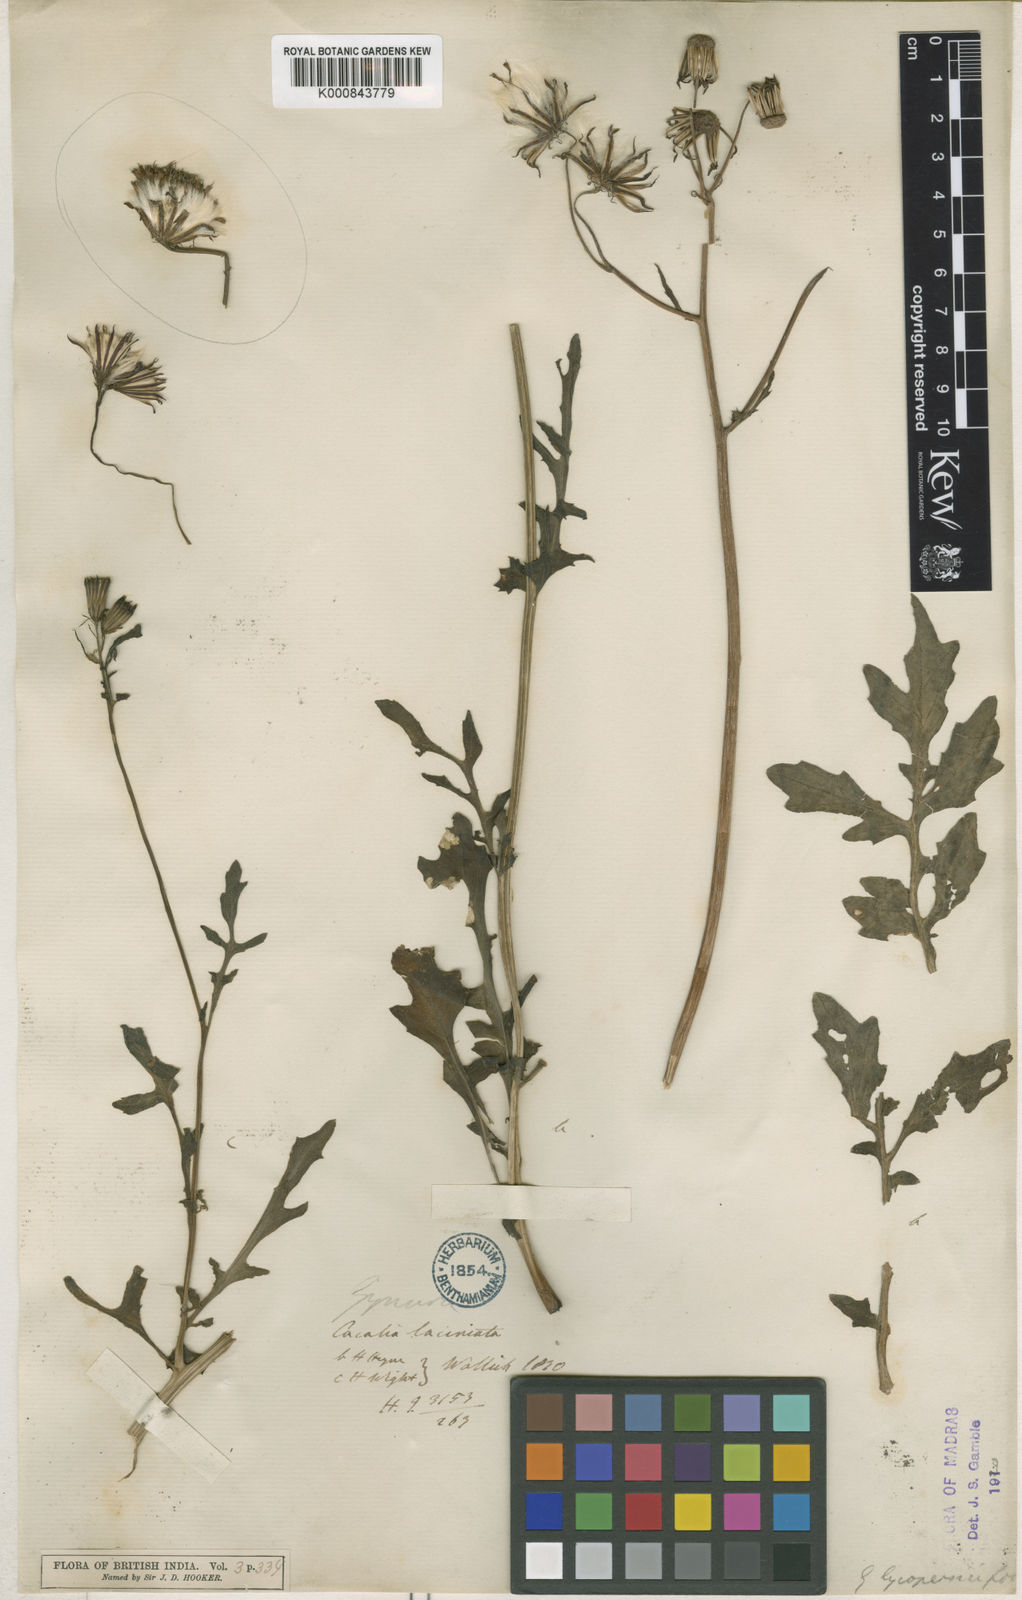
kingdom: Plantae
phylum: Tracheophyta
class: Magnoliopsida
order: Asterales
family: Asteraceae
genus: Gynura
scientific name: Gynura lycopersicifolia
